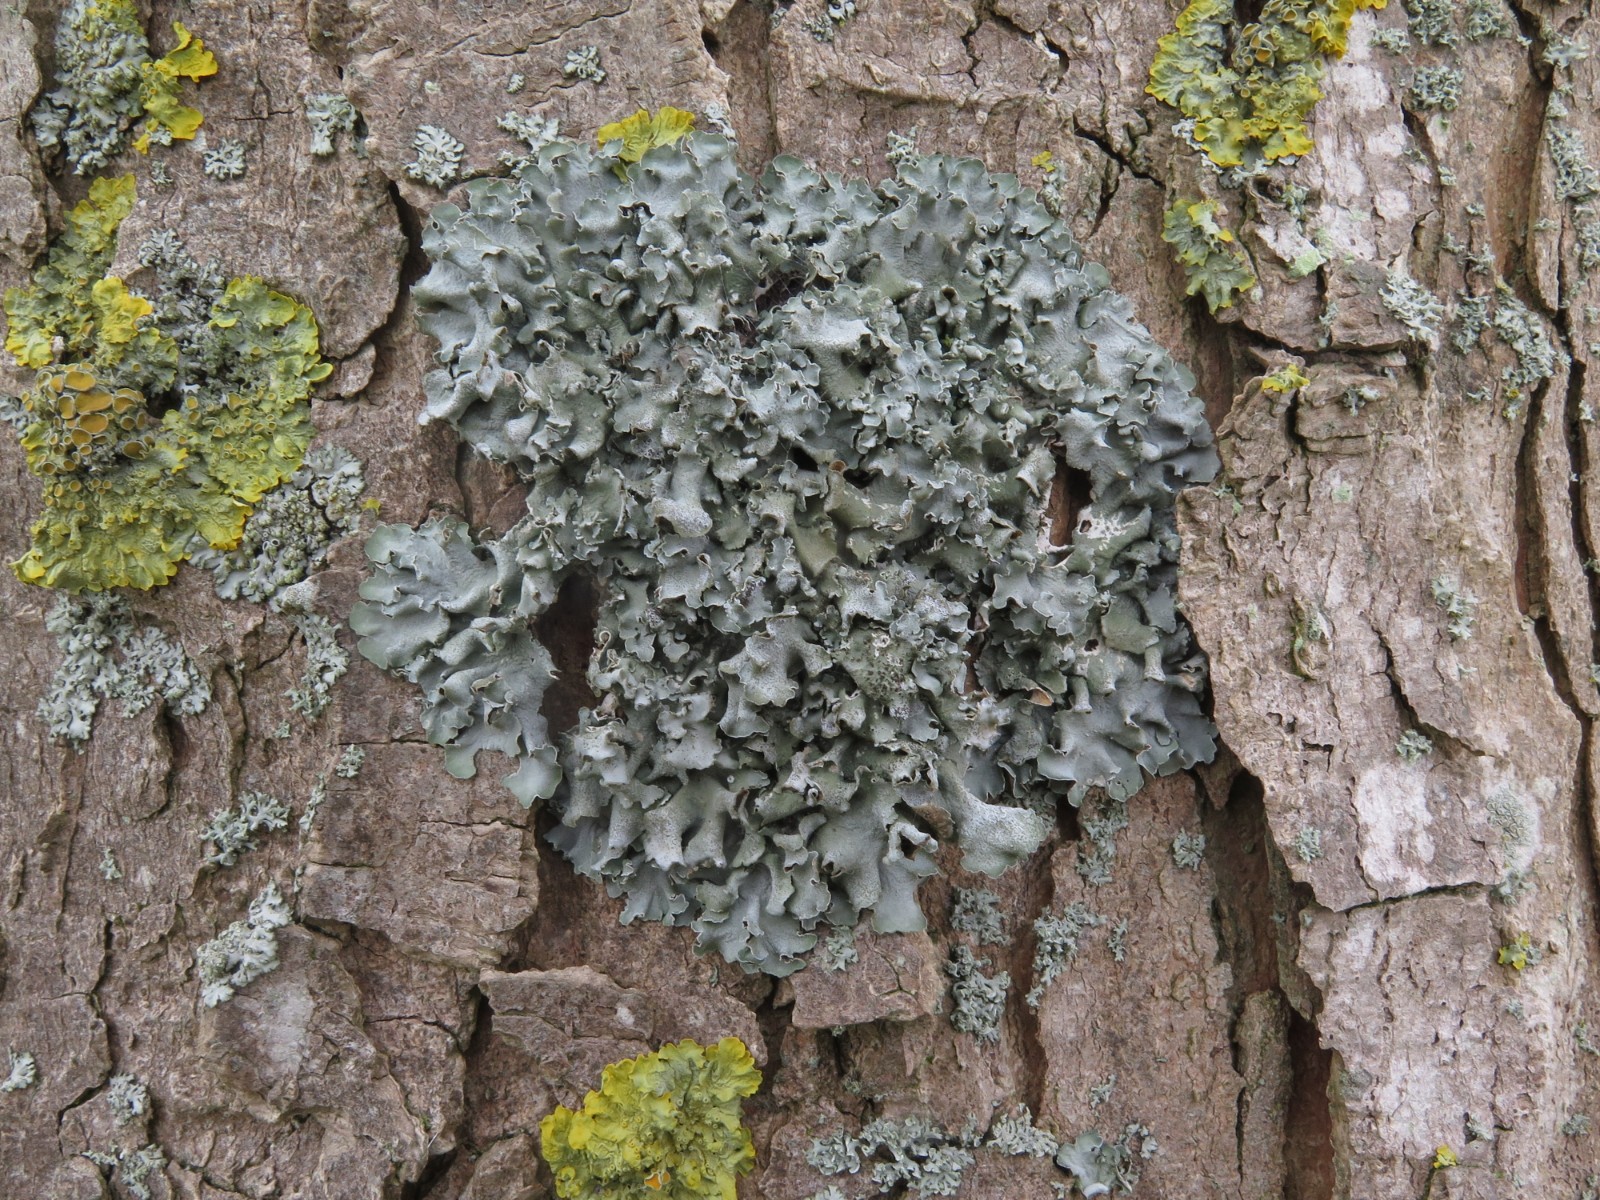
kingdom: Fungi
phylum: Ascomycota
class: Lecanoromycetes
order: Lecanorales
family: Parmeliaceae
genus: Pleurosticta
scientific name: Pleurosticta acetabulum
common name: stor skållav
